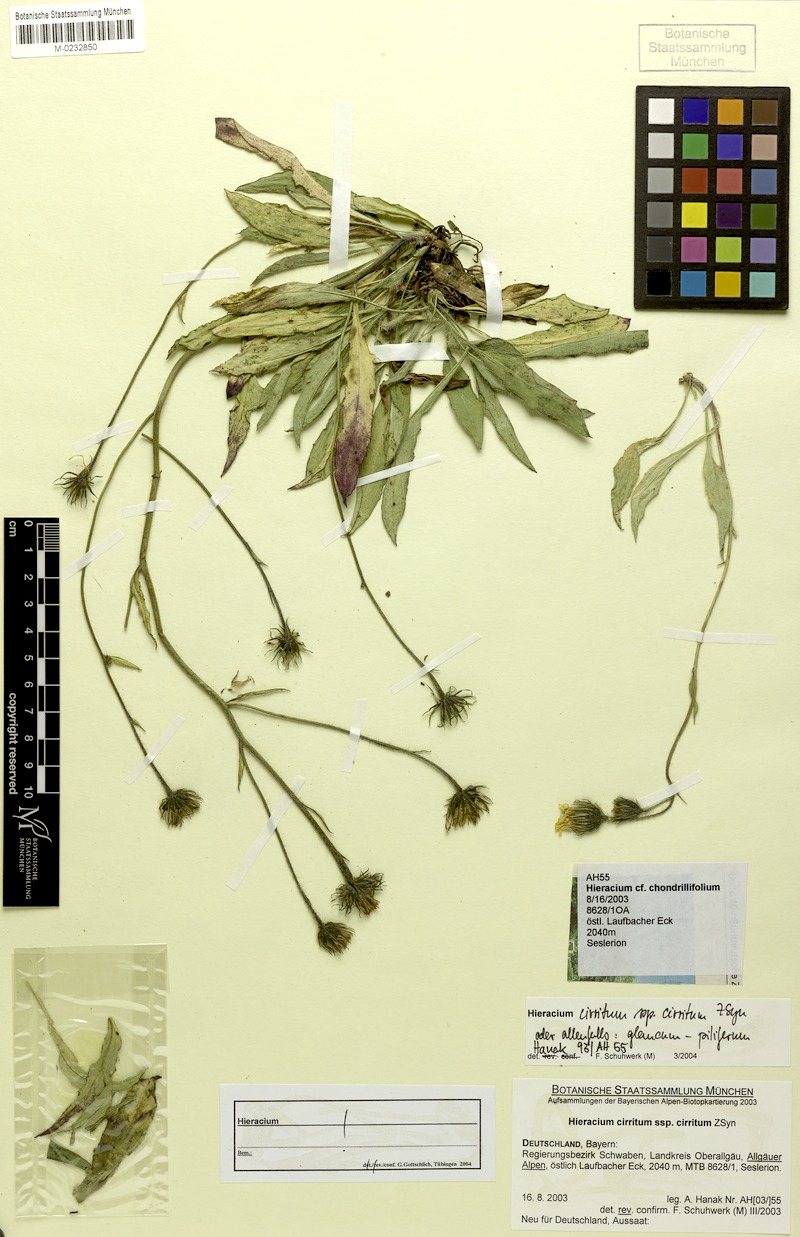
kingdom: Plantae
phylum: Tracheophyta
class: Magnoliopsida
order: Asterales
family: Asteraceae
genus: Hieracium
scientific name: Hieracium cirritum
